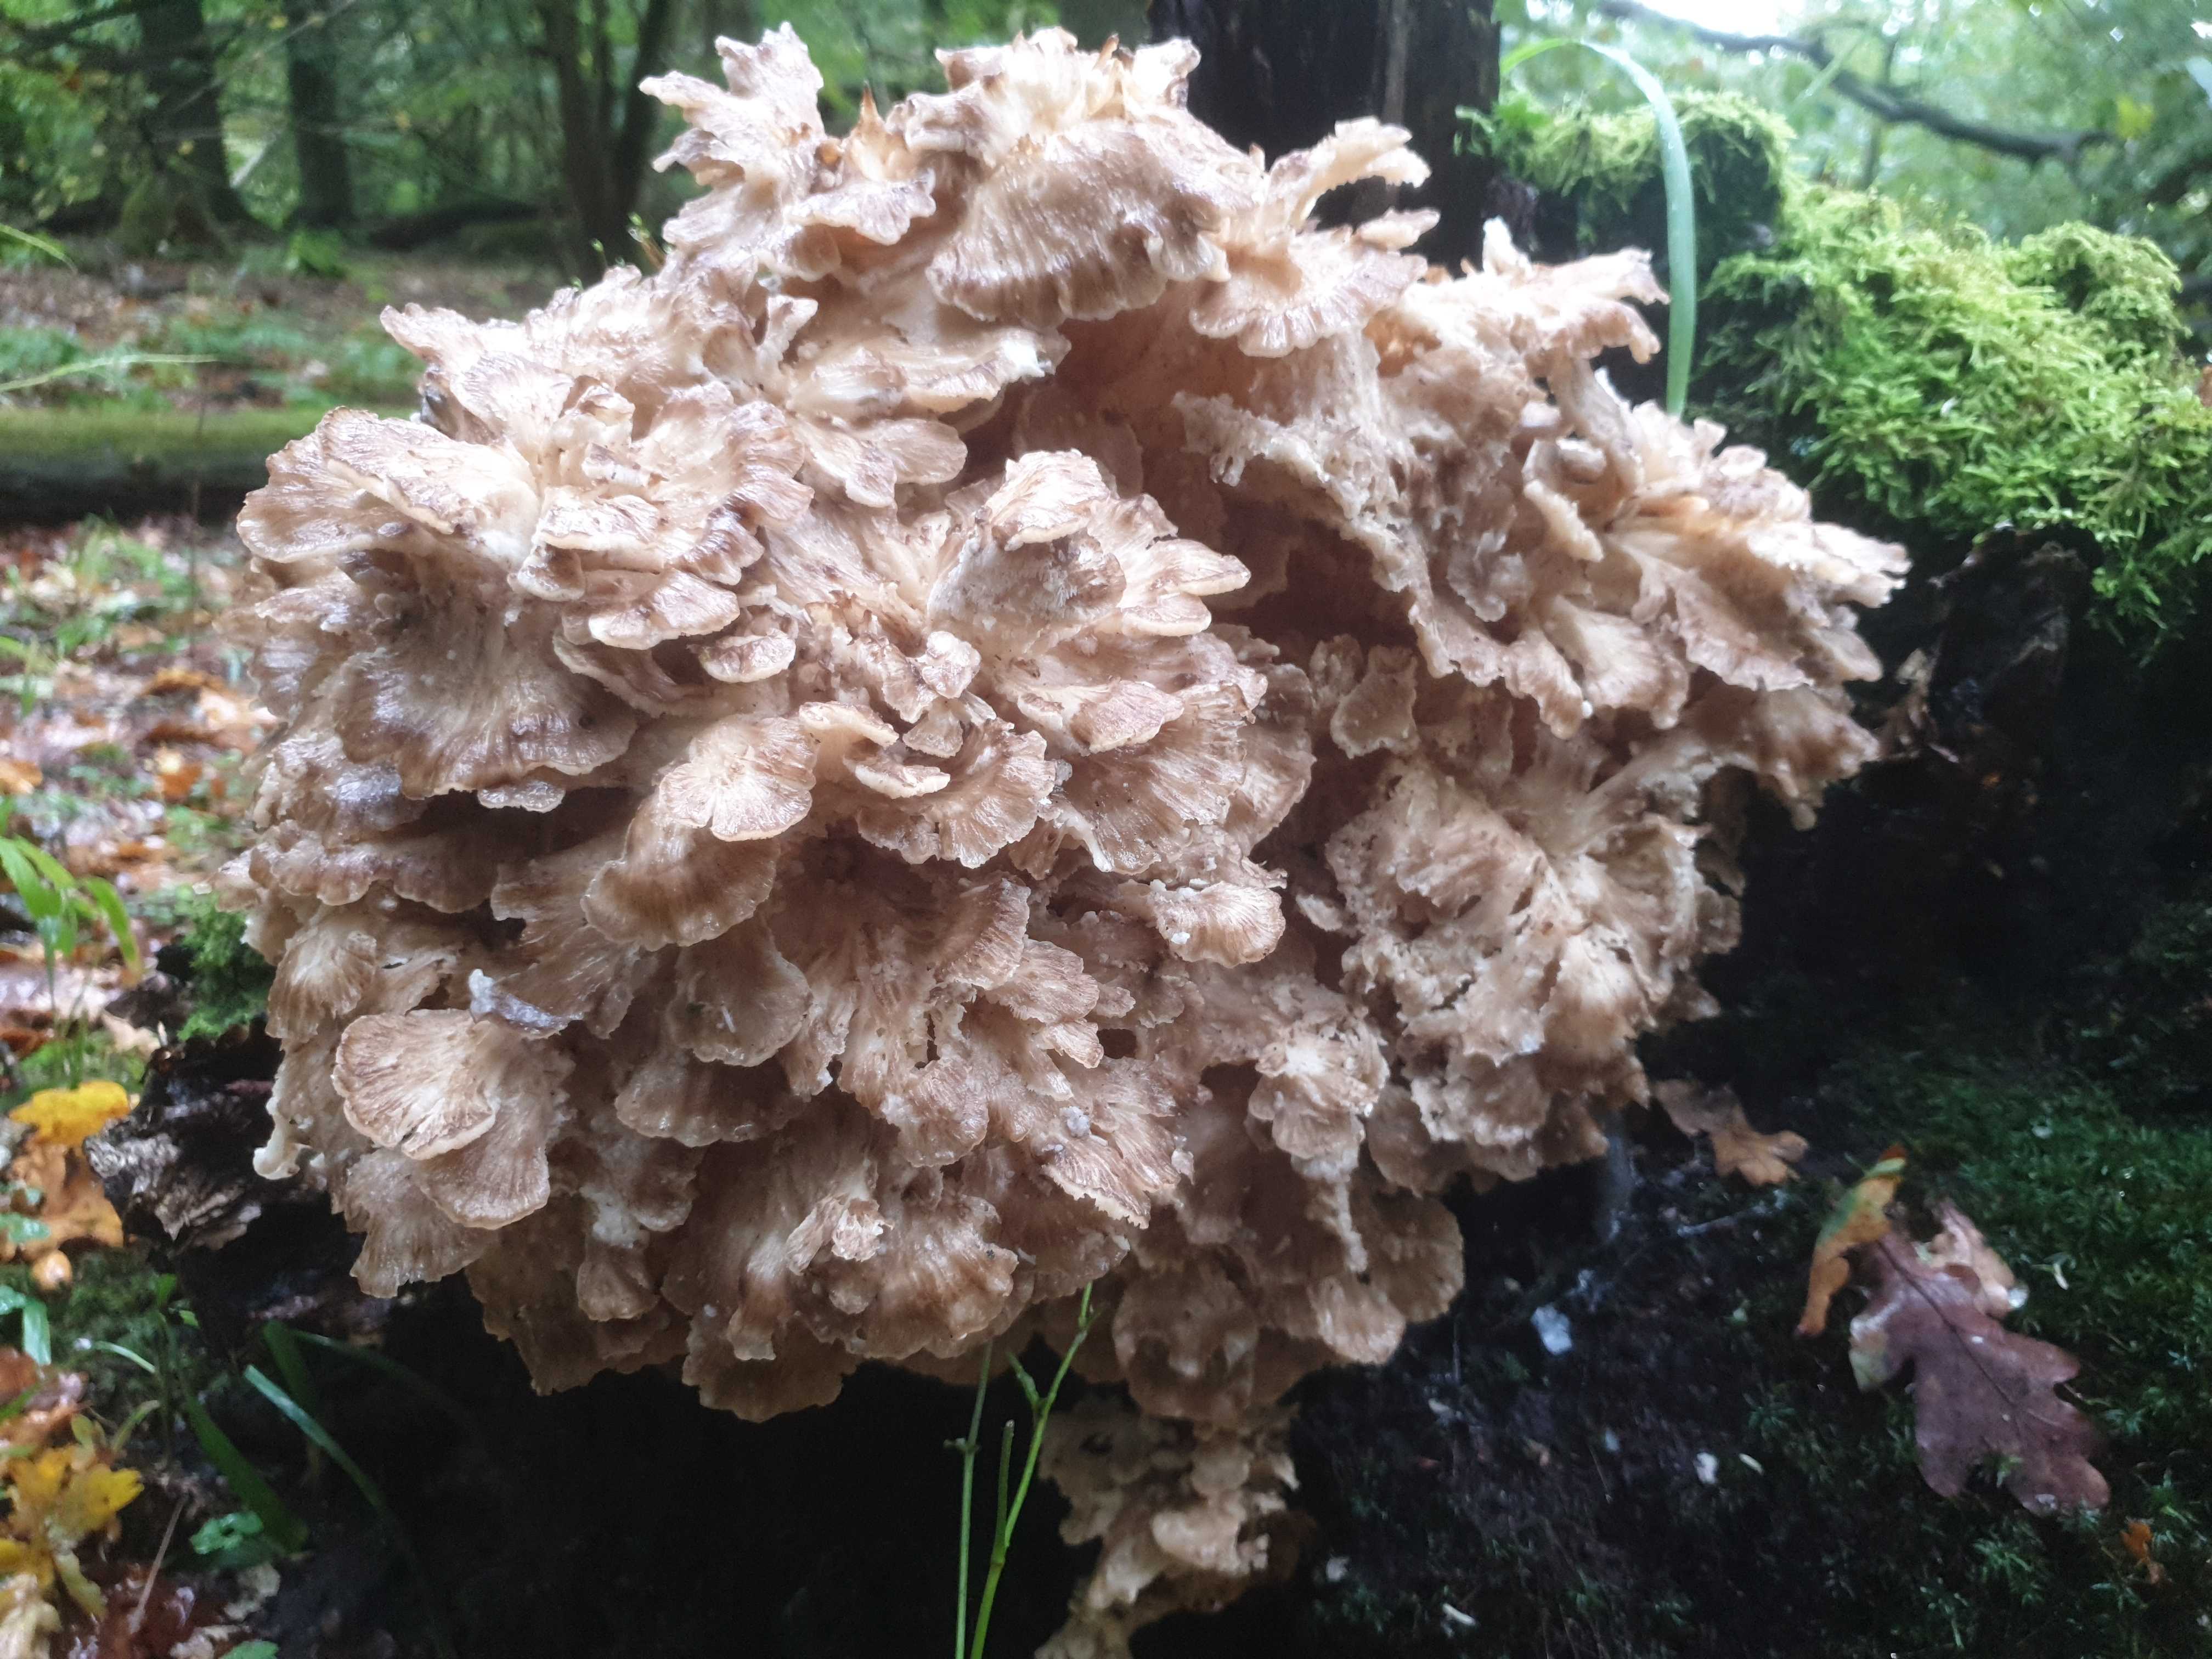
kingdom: Fungi
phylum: Basidiomycota
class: Agaricomycetes
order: Polyporales
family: Grifolaceae
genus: Grifola
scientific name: Grifola frondosa
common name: tueporesvamp
